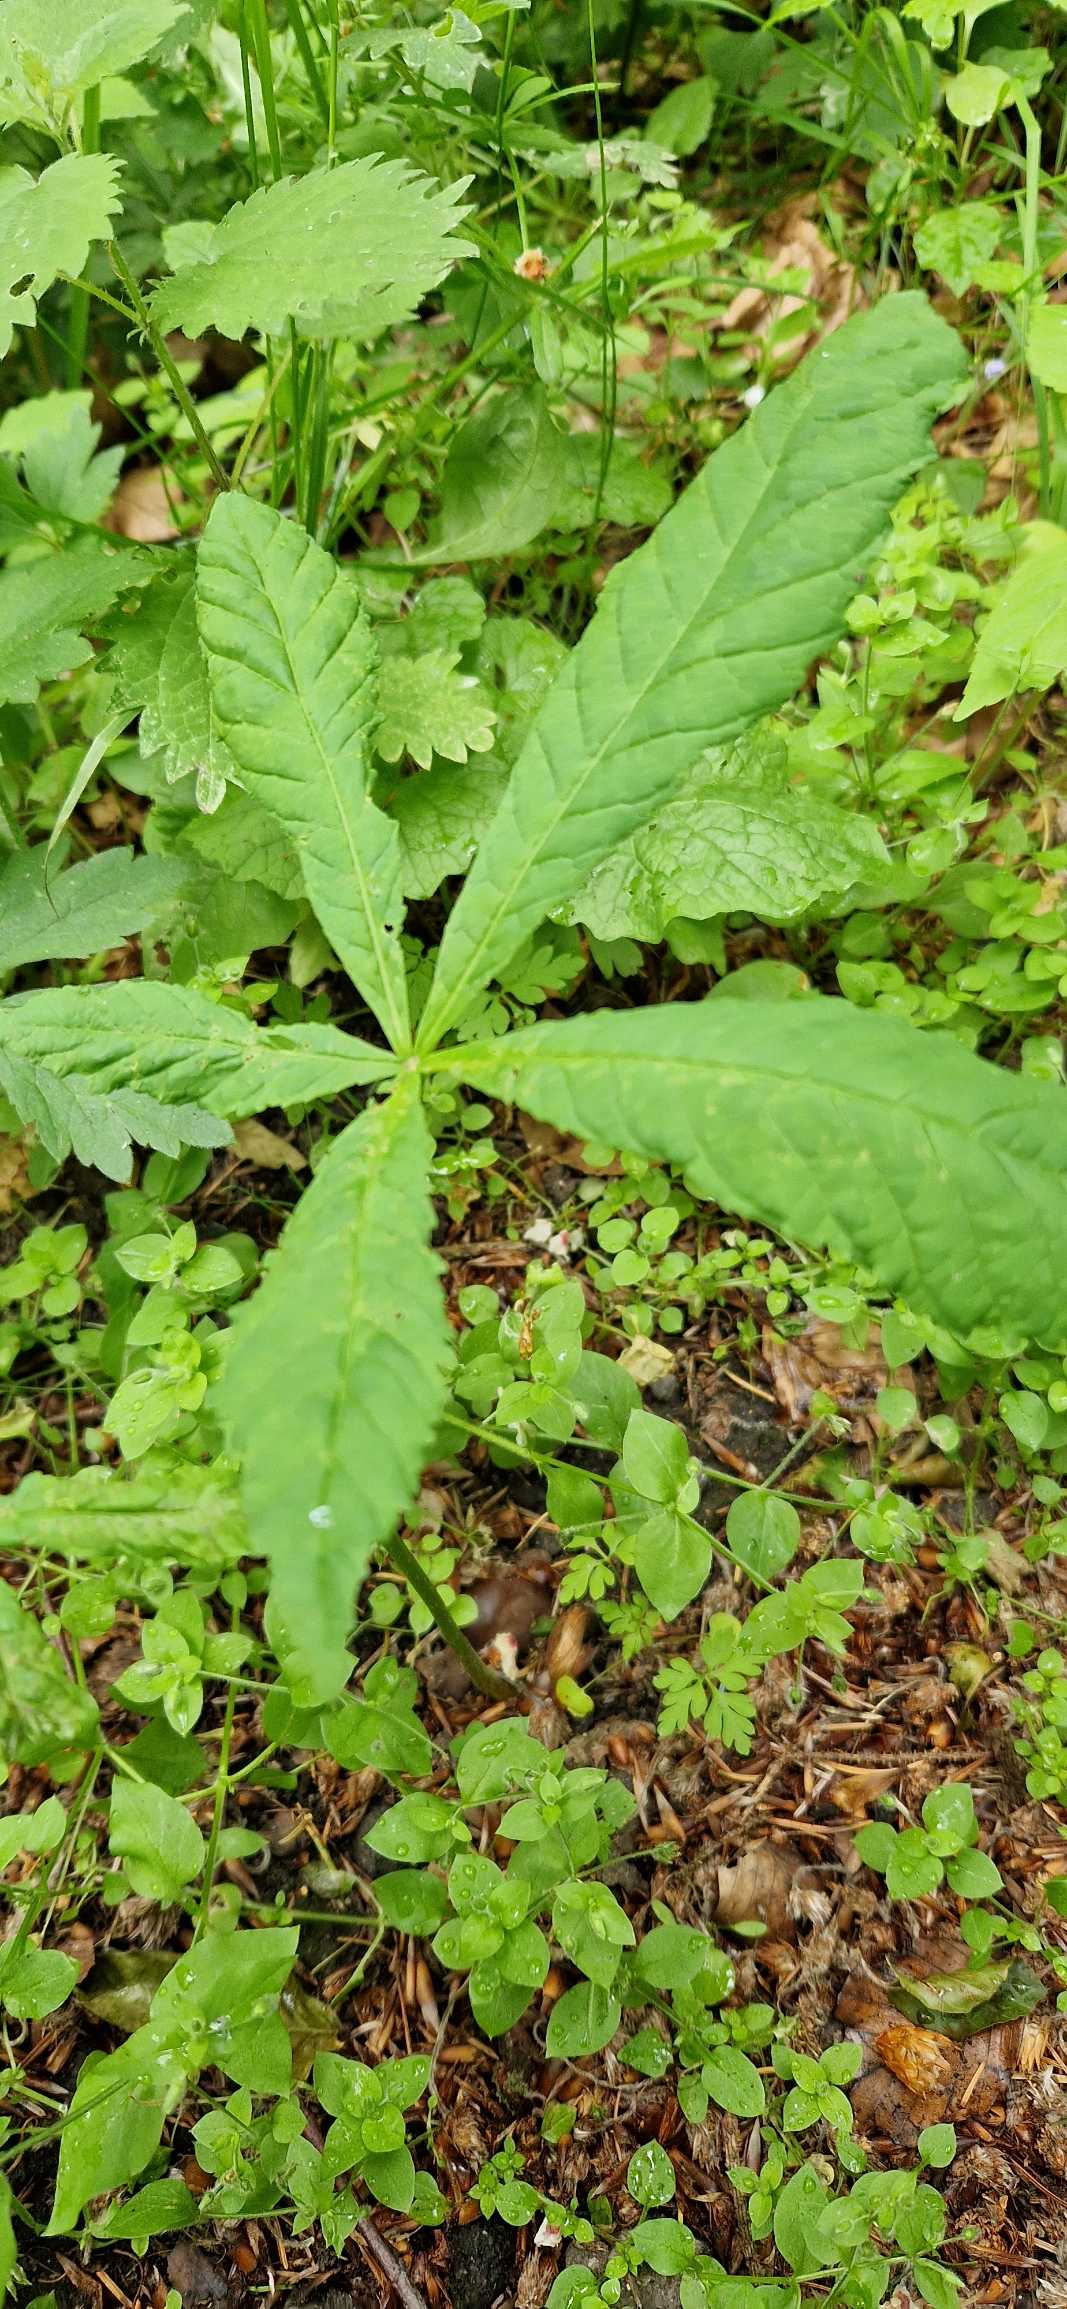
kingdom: Plantae
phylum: Tracheophyta
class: Magnoliopsida
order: Sapindales
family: Sapindaceae
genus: Aesculus
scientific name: Aesculus hippocastanum
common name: Hestekastanie
